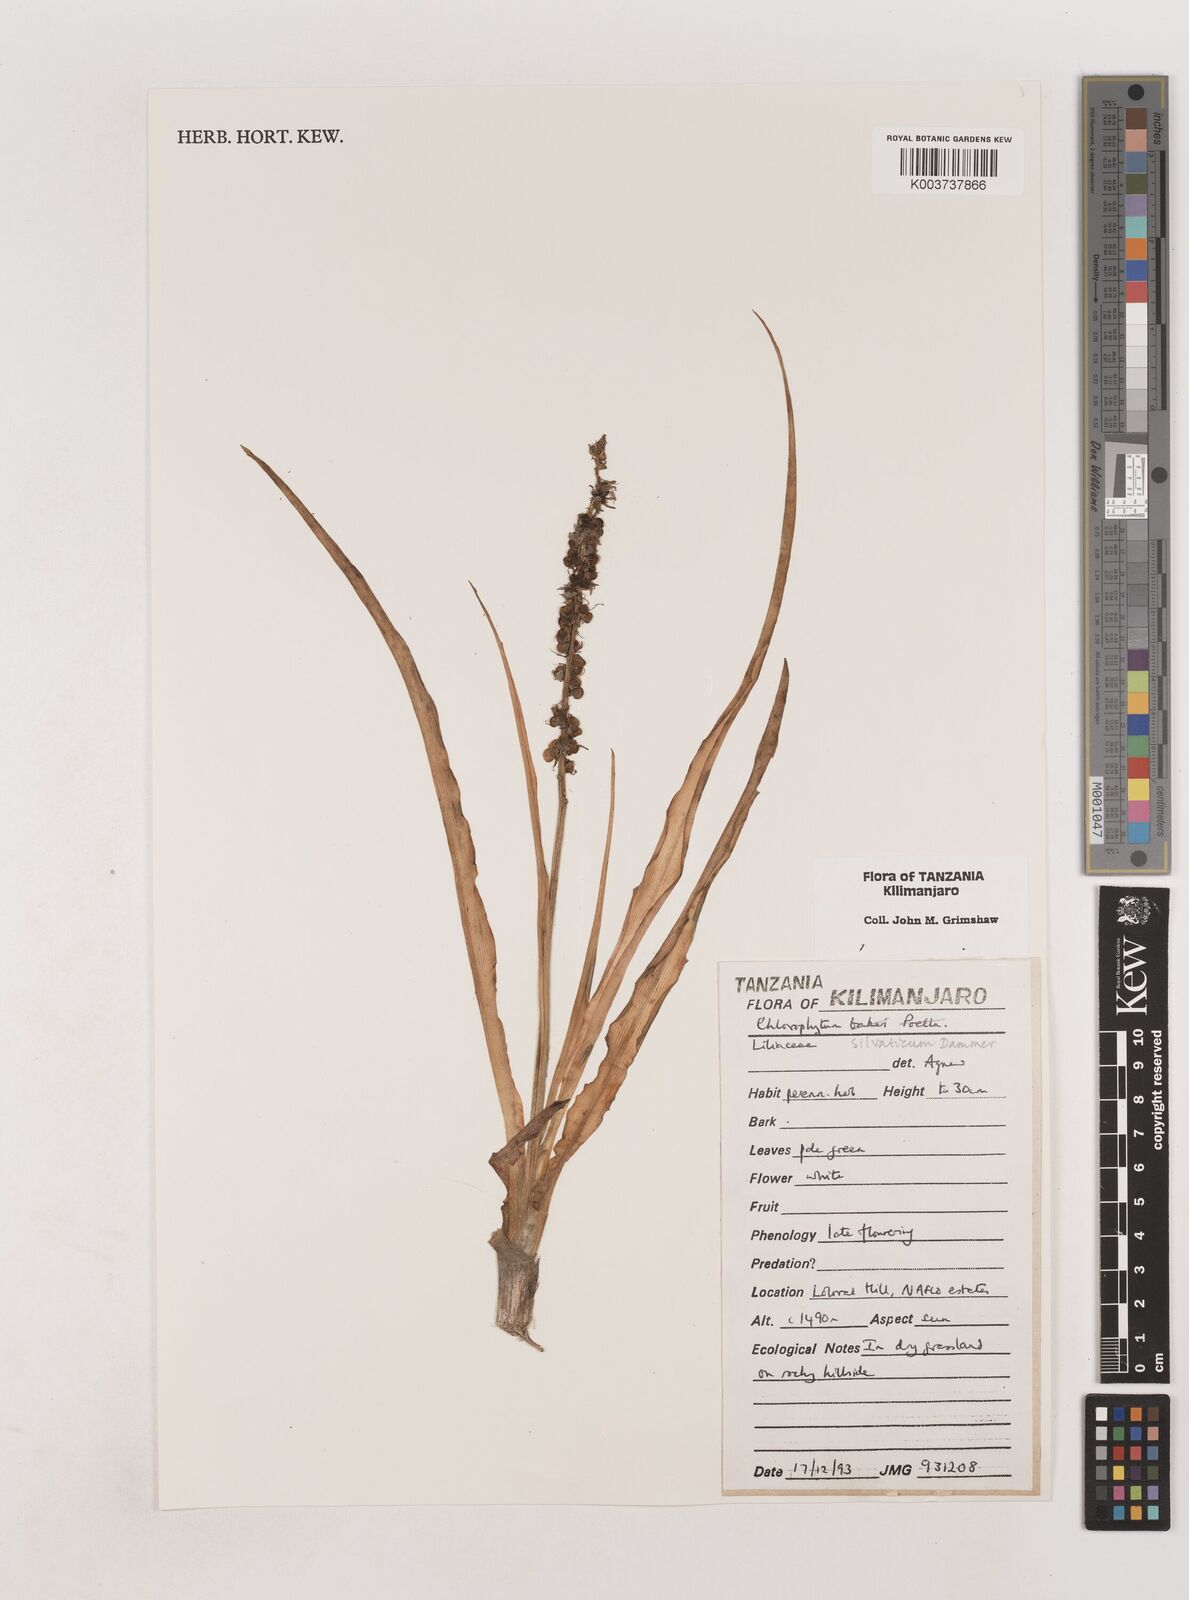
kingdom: Plantae
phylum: Tracheophyta
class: Liliopsida
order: Asparagales
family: Asparagaceae
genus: Chlorophytum
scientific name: Chlorophytum africanum
